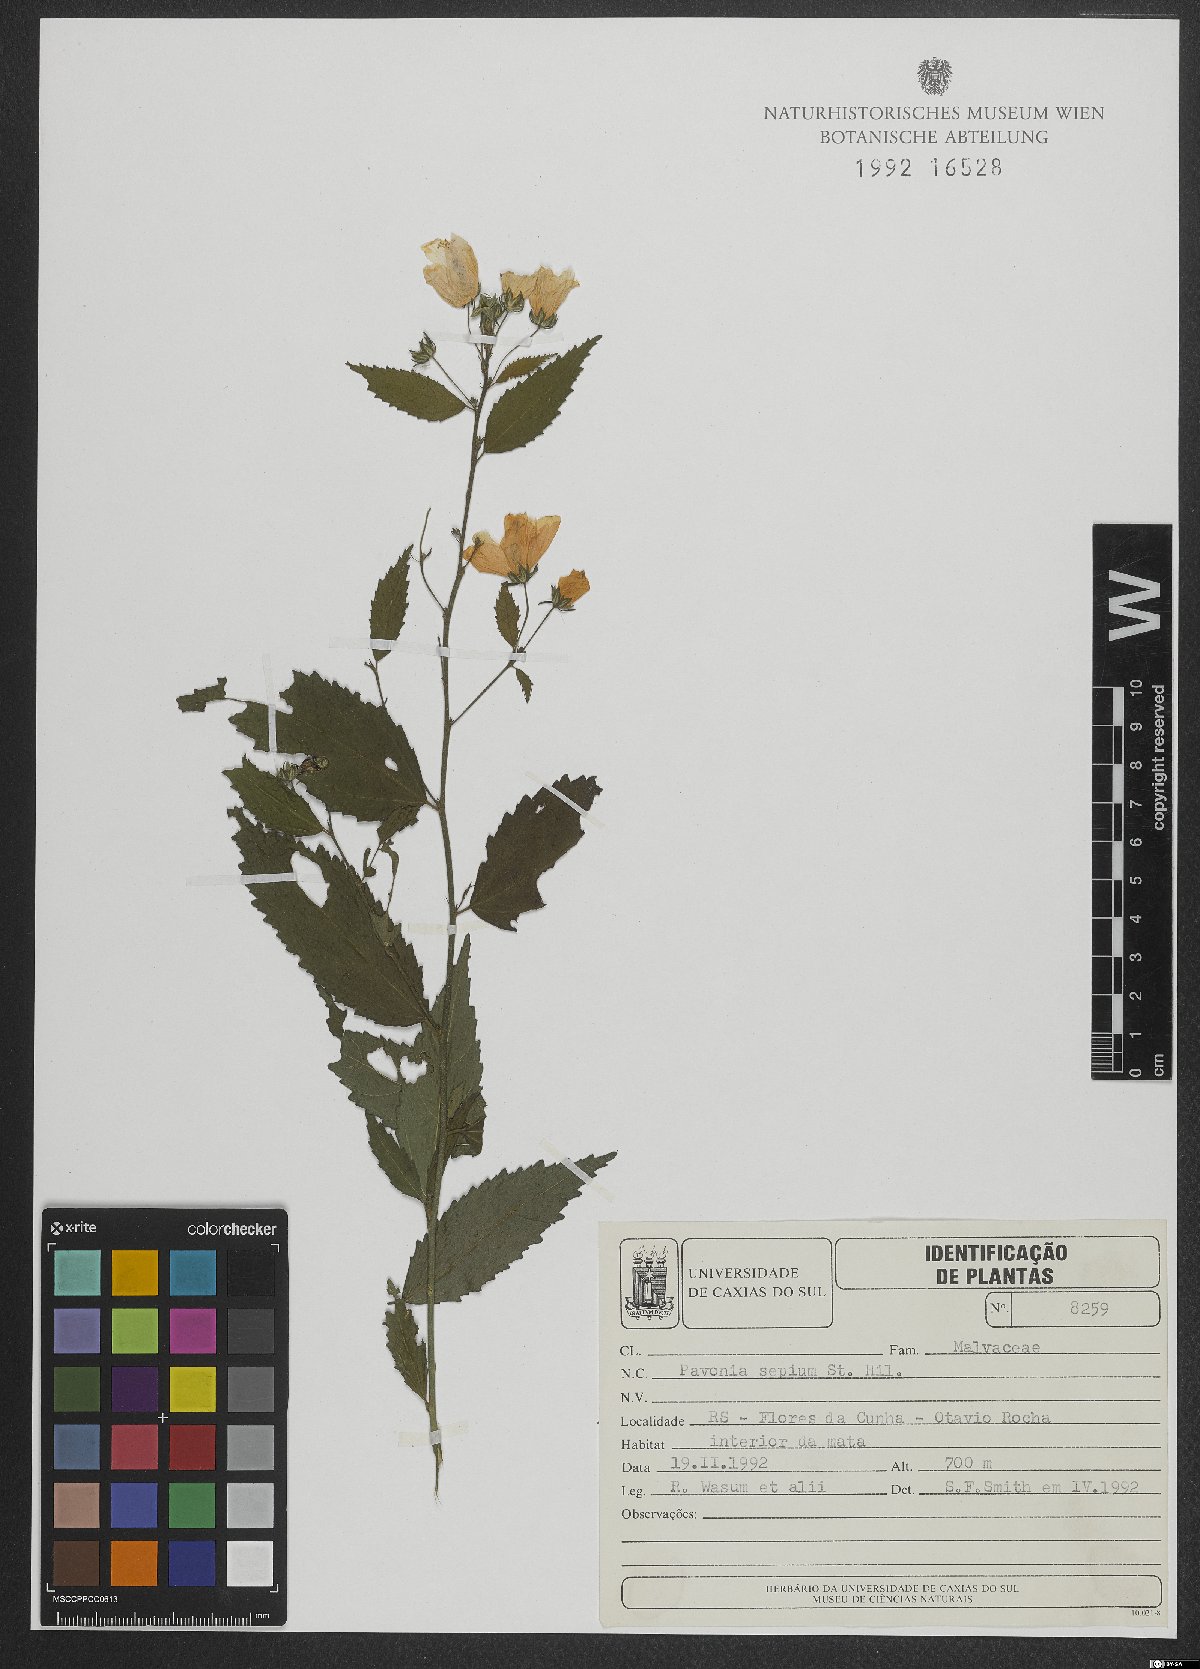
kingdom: Plantae
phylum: Tracheophyta
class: Magnoliopsida
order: Malvales
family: Malvaceae
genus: Pavonia
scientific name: Pavonia sepium
